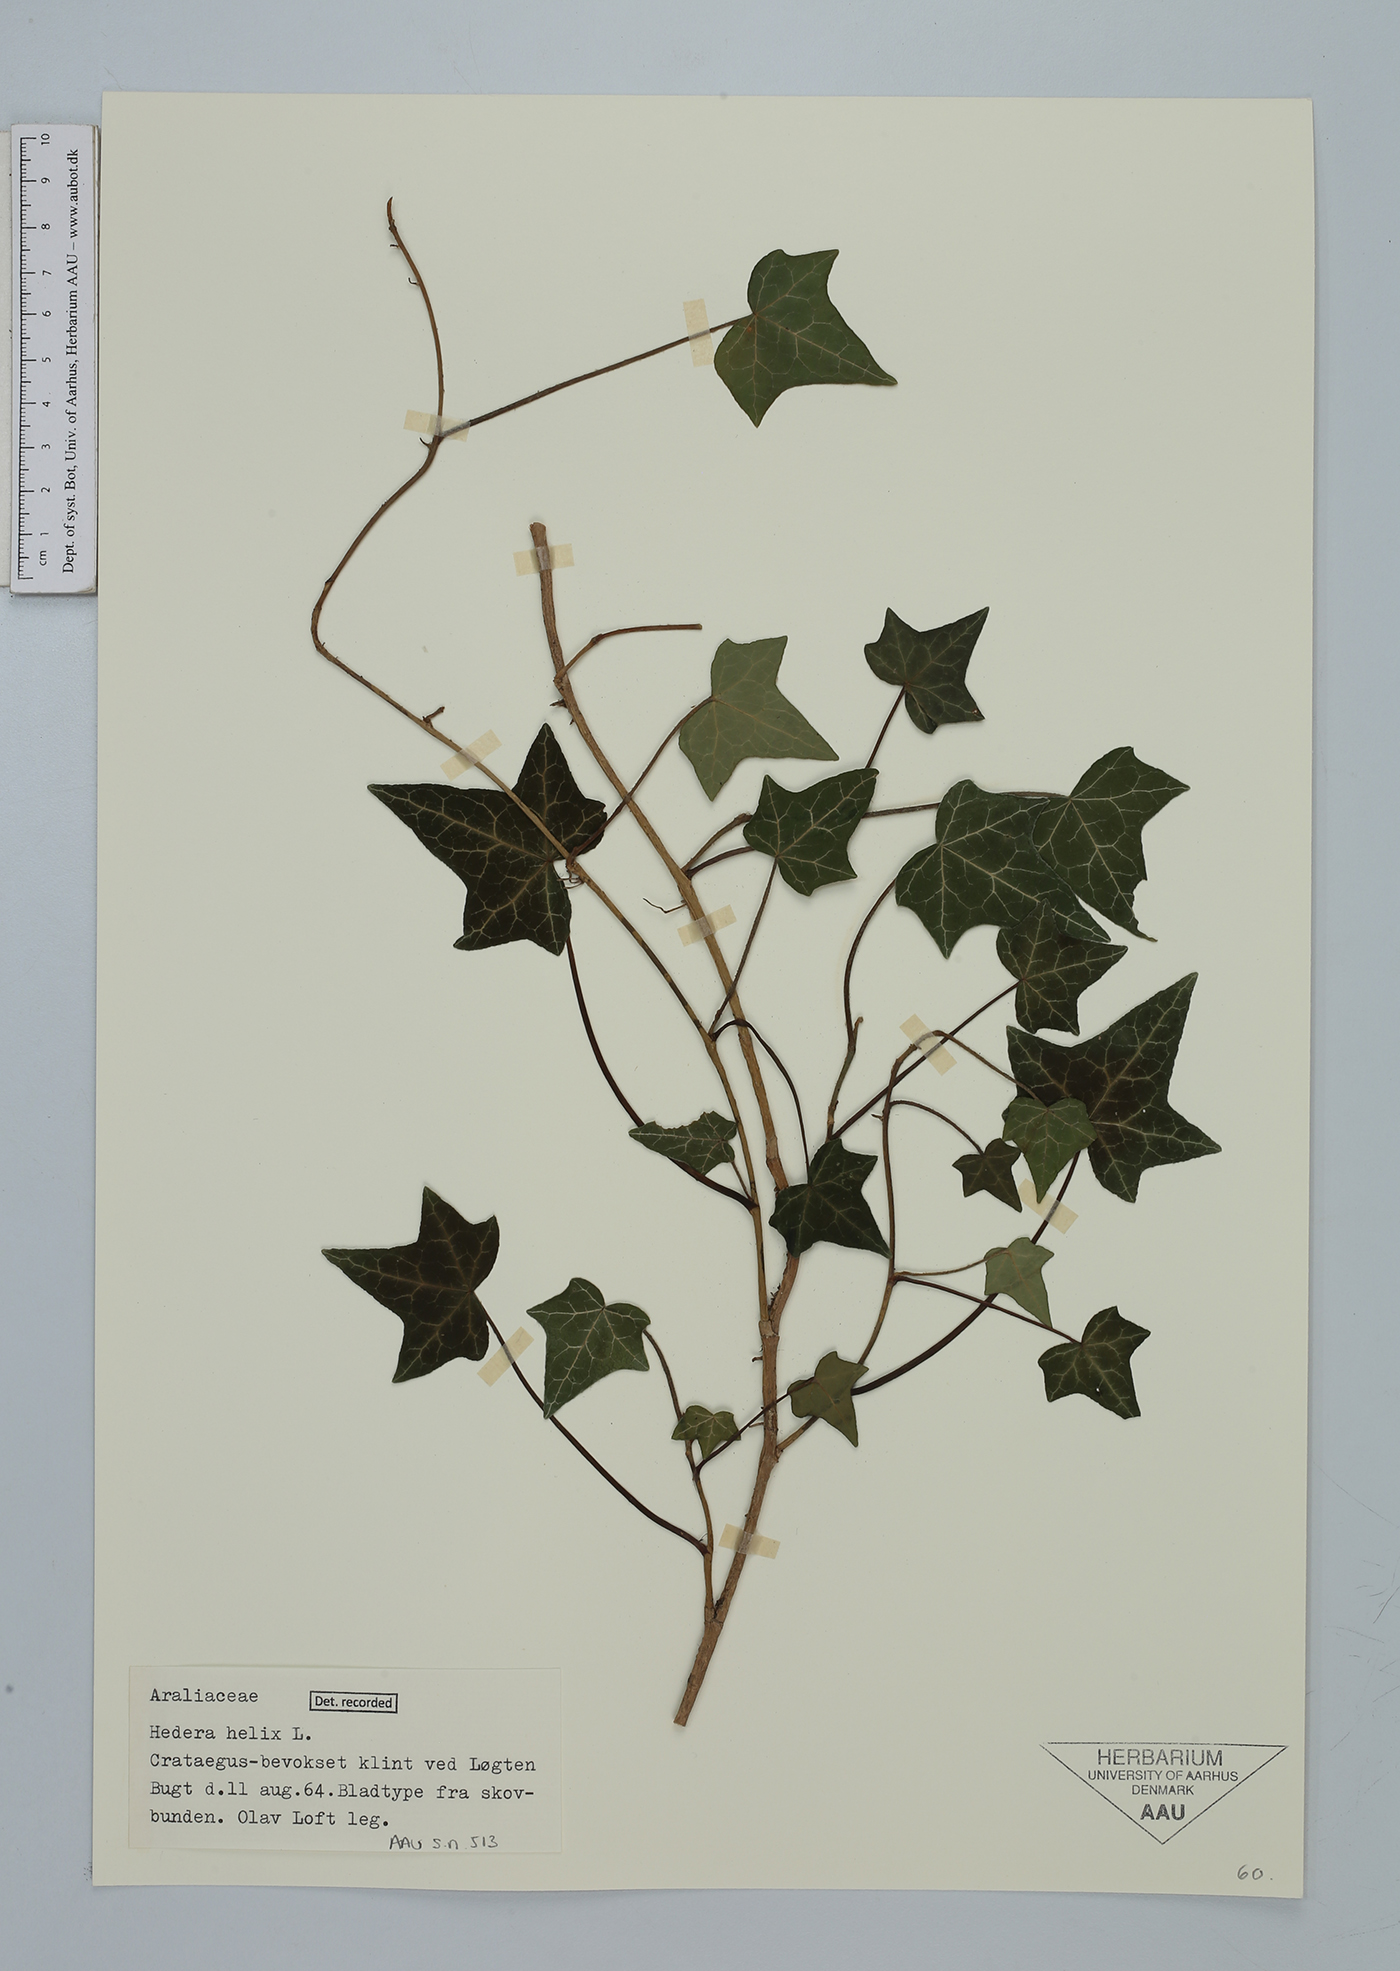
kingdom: Plantae
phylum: Tracheophyta
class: Magnoliopsida
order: Apiales
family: Araliaceae
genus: Hedera
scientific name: Hedera helix
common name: Ivy
